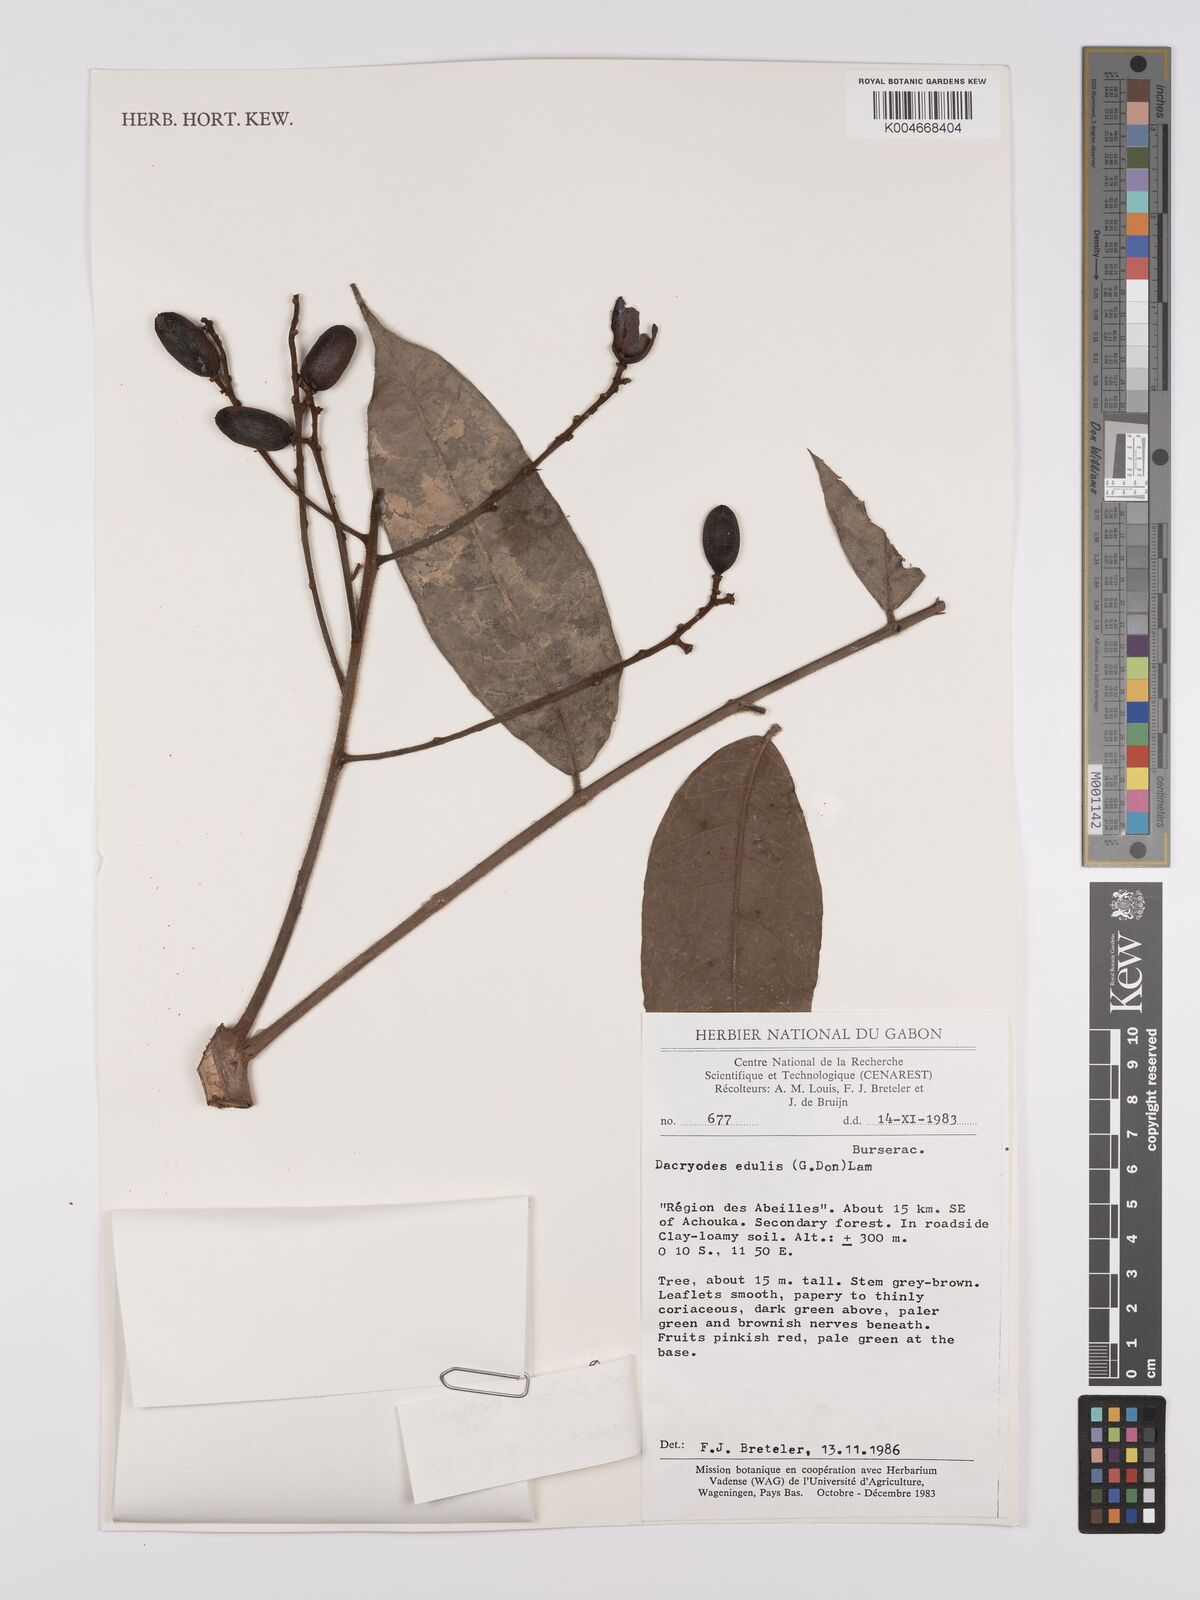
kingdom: Plantae
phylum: Tracheophyta
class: Magnoliopsida
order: Sapindales
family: Burseraceae
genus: Pachylobus
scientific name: Pachylobus letestui
